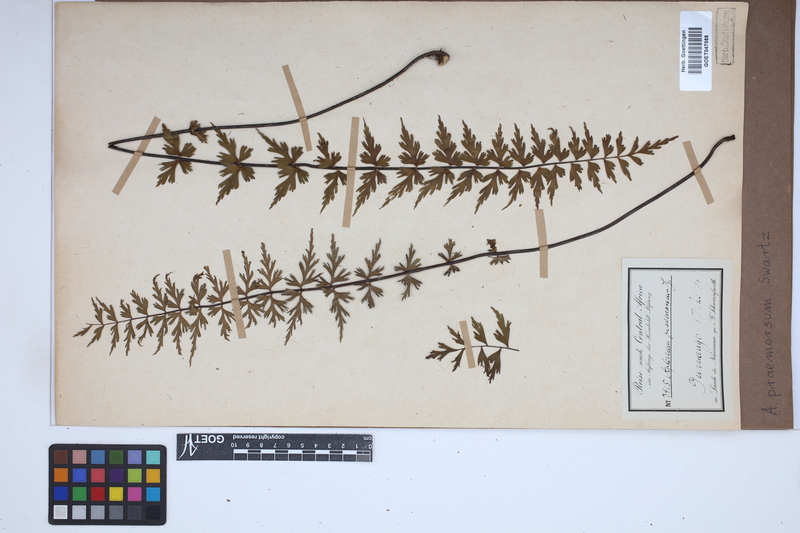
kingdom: Plantae
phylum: Tracheophyta
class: Polypodiopsida
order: Polypodiales
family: Aspleniaceae
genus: Asplenium
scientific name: Asplenium praemorsum
